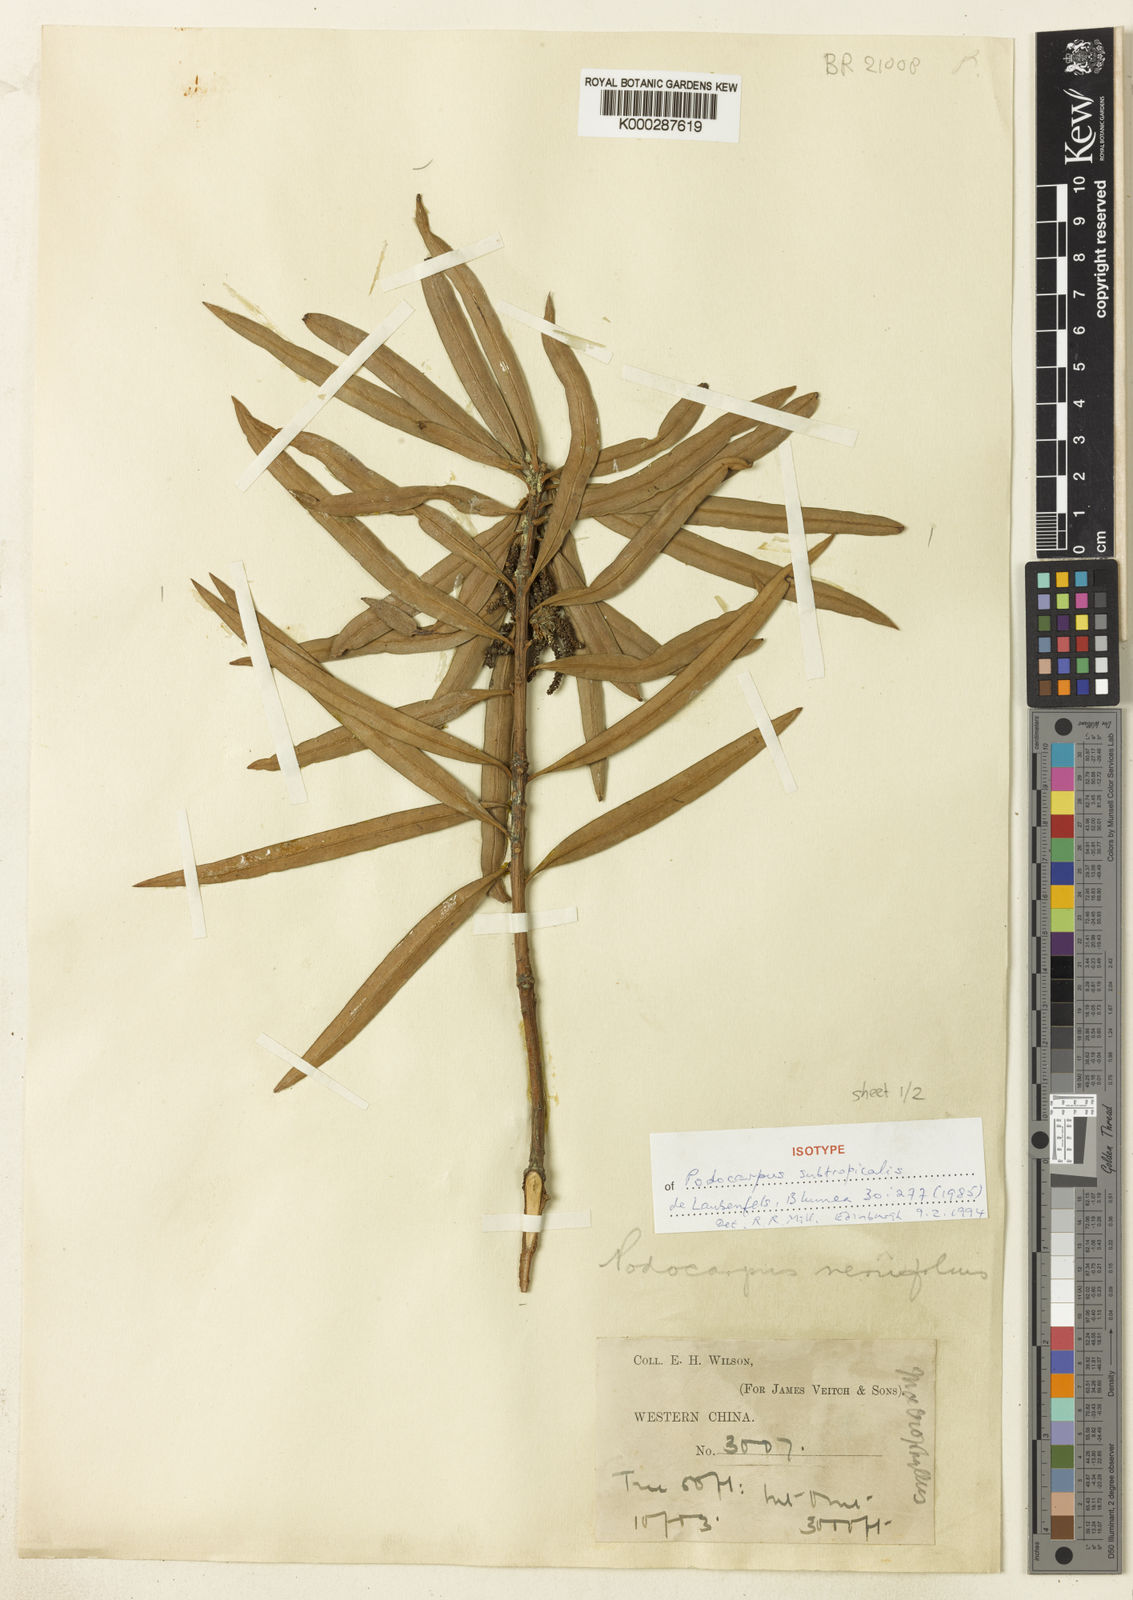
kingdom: Plantae
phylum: Tracheophyta
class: Pinopsida
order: Pinales
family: Podocarpaceae
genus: Podocarpus
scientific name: Podocarpus subtropicalis
